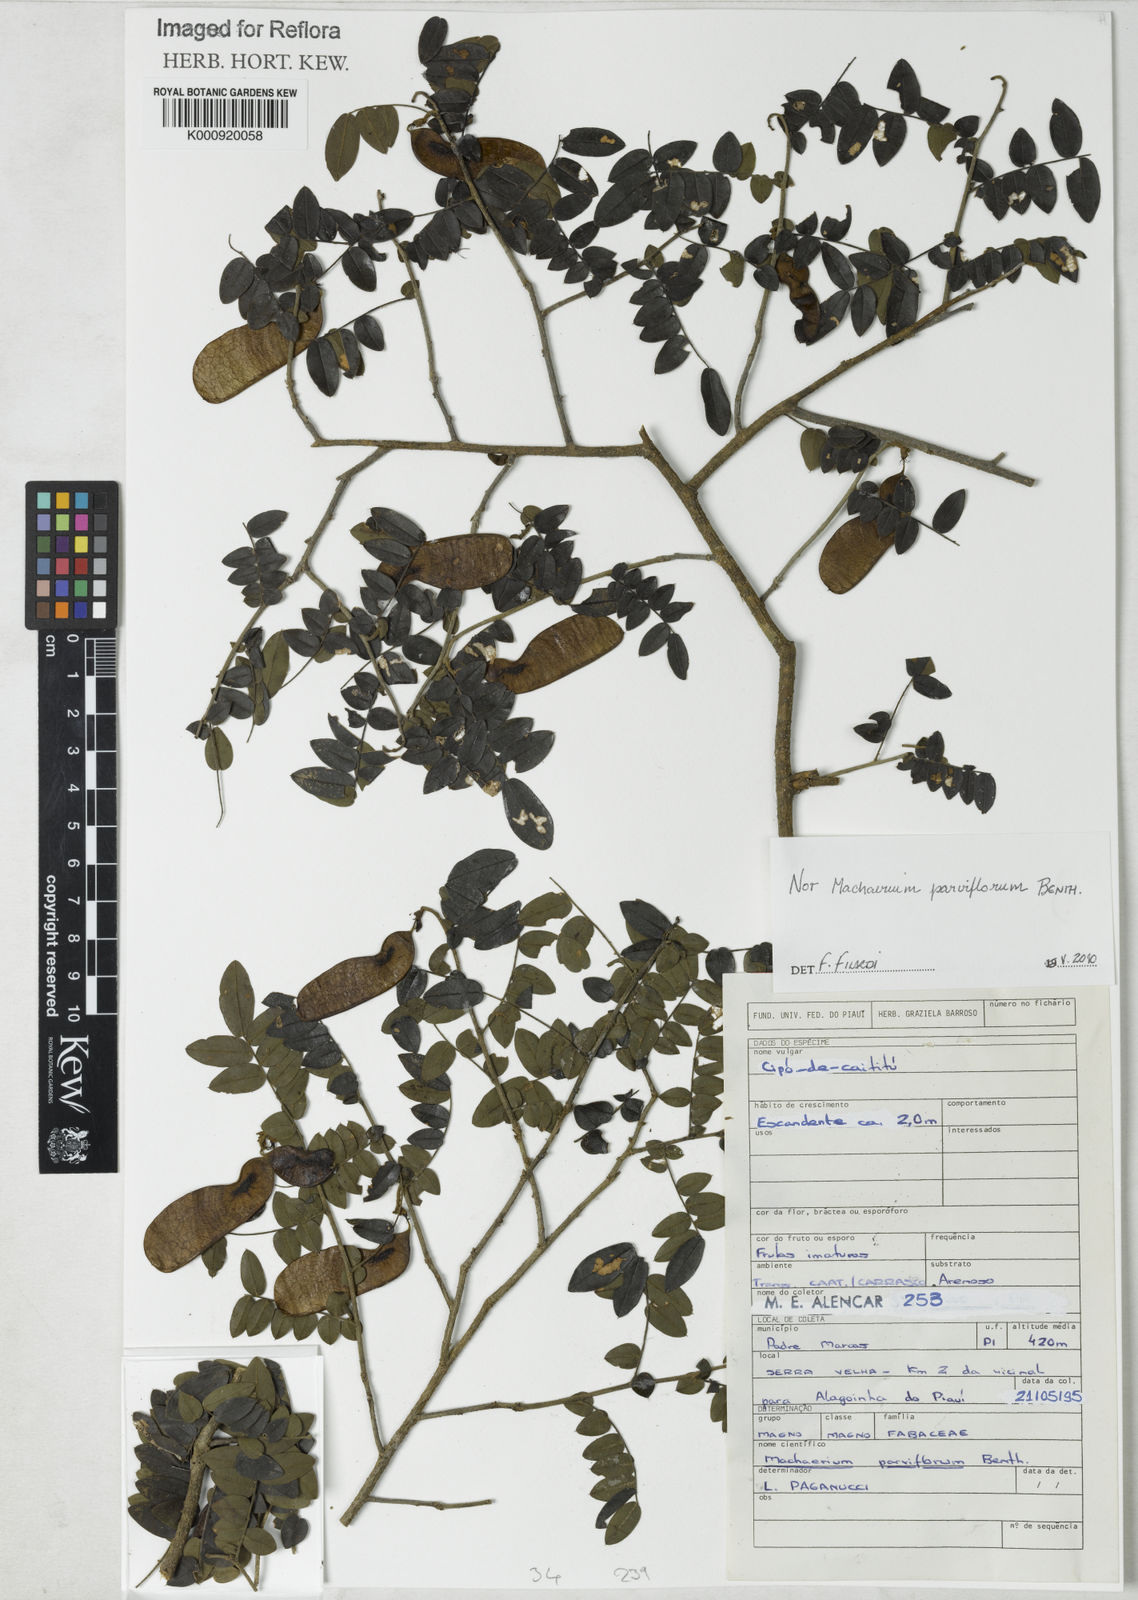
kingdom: Plantae
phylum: Tracheophyta
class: Magnoliopsida
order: Fabales
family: Fabaceae
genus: Machaerium
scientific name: Machaerium
